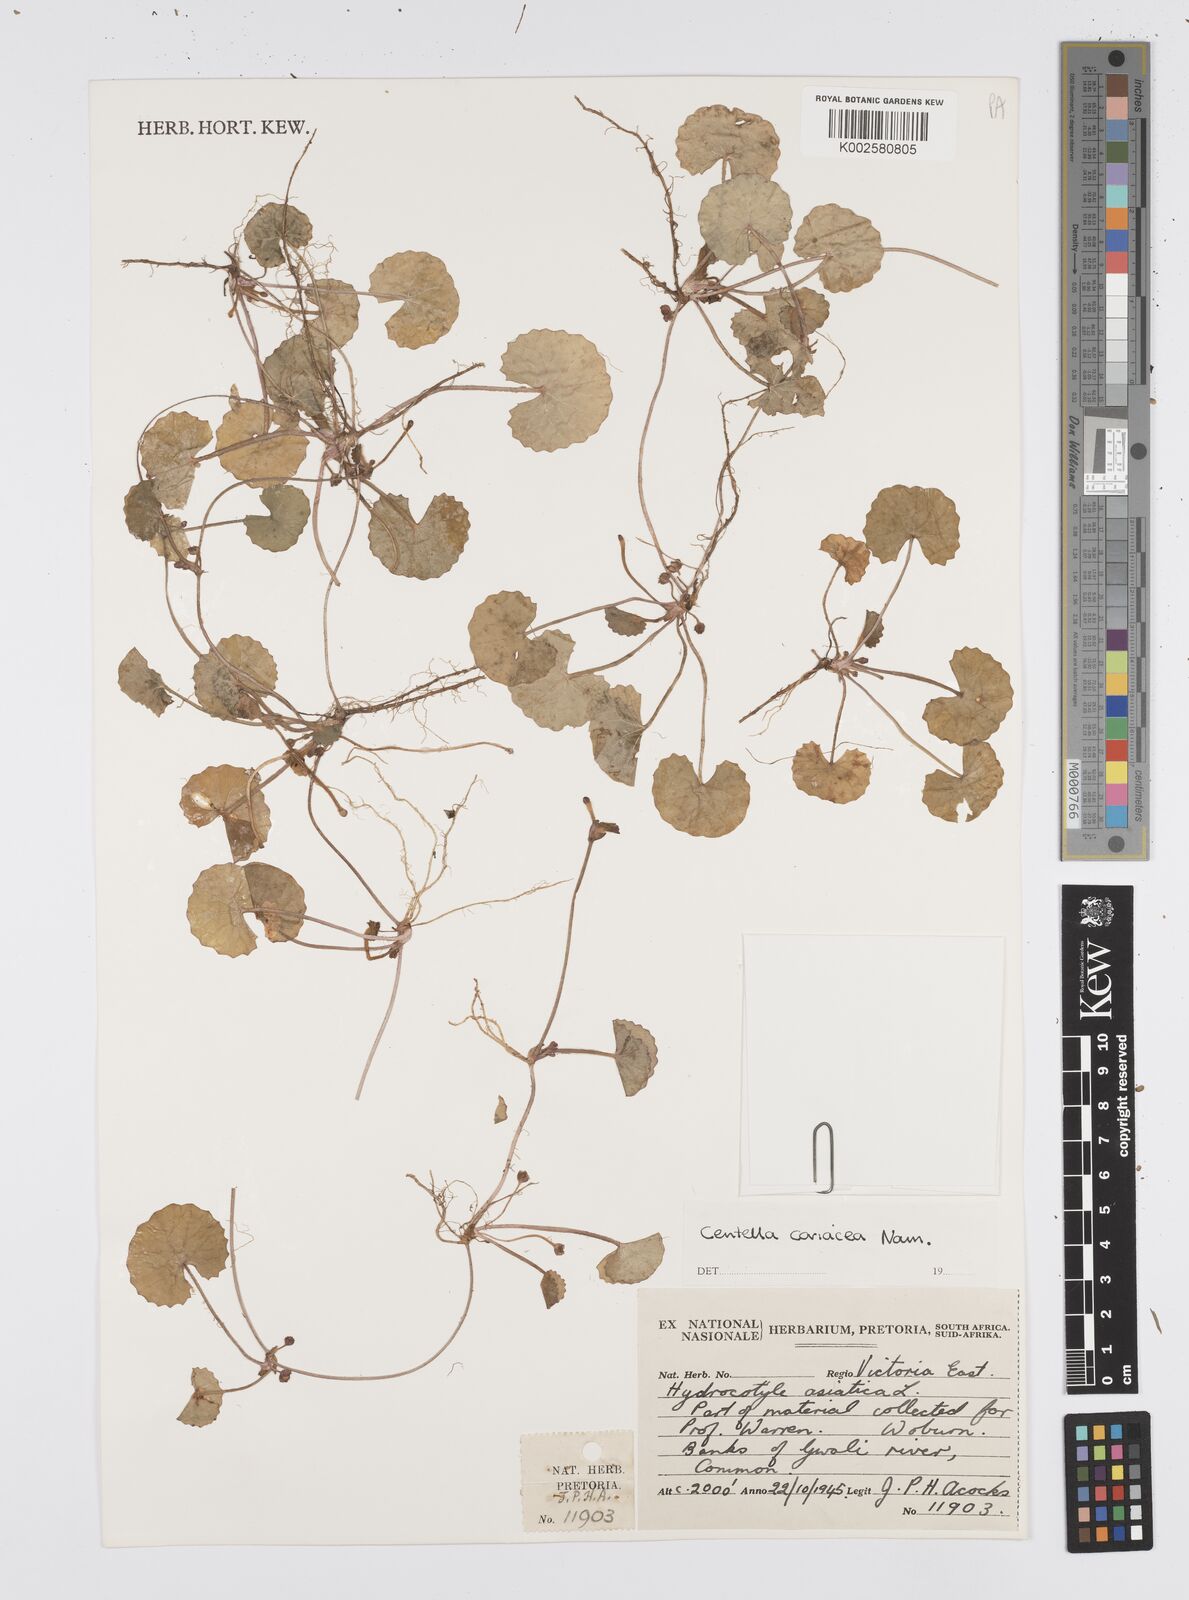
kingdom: Plantae
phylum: Tracheophyta
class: Magnoliopsida
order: Apiales
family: Apiaceae
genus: Centella
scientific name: Centella coriacea
